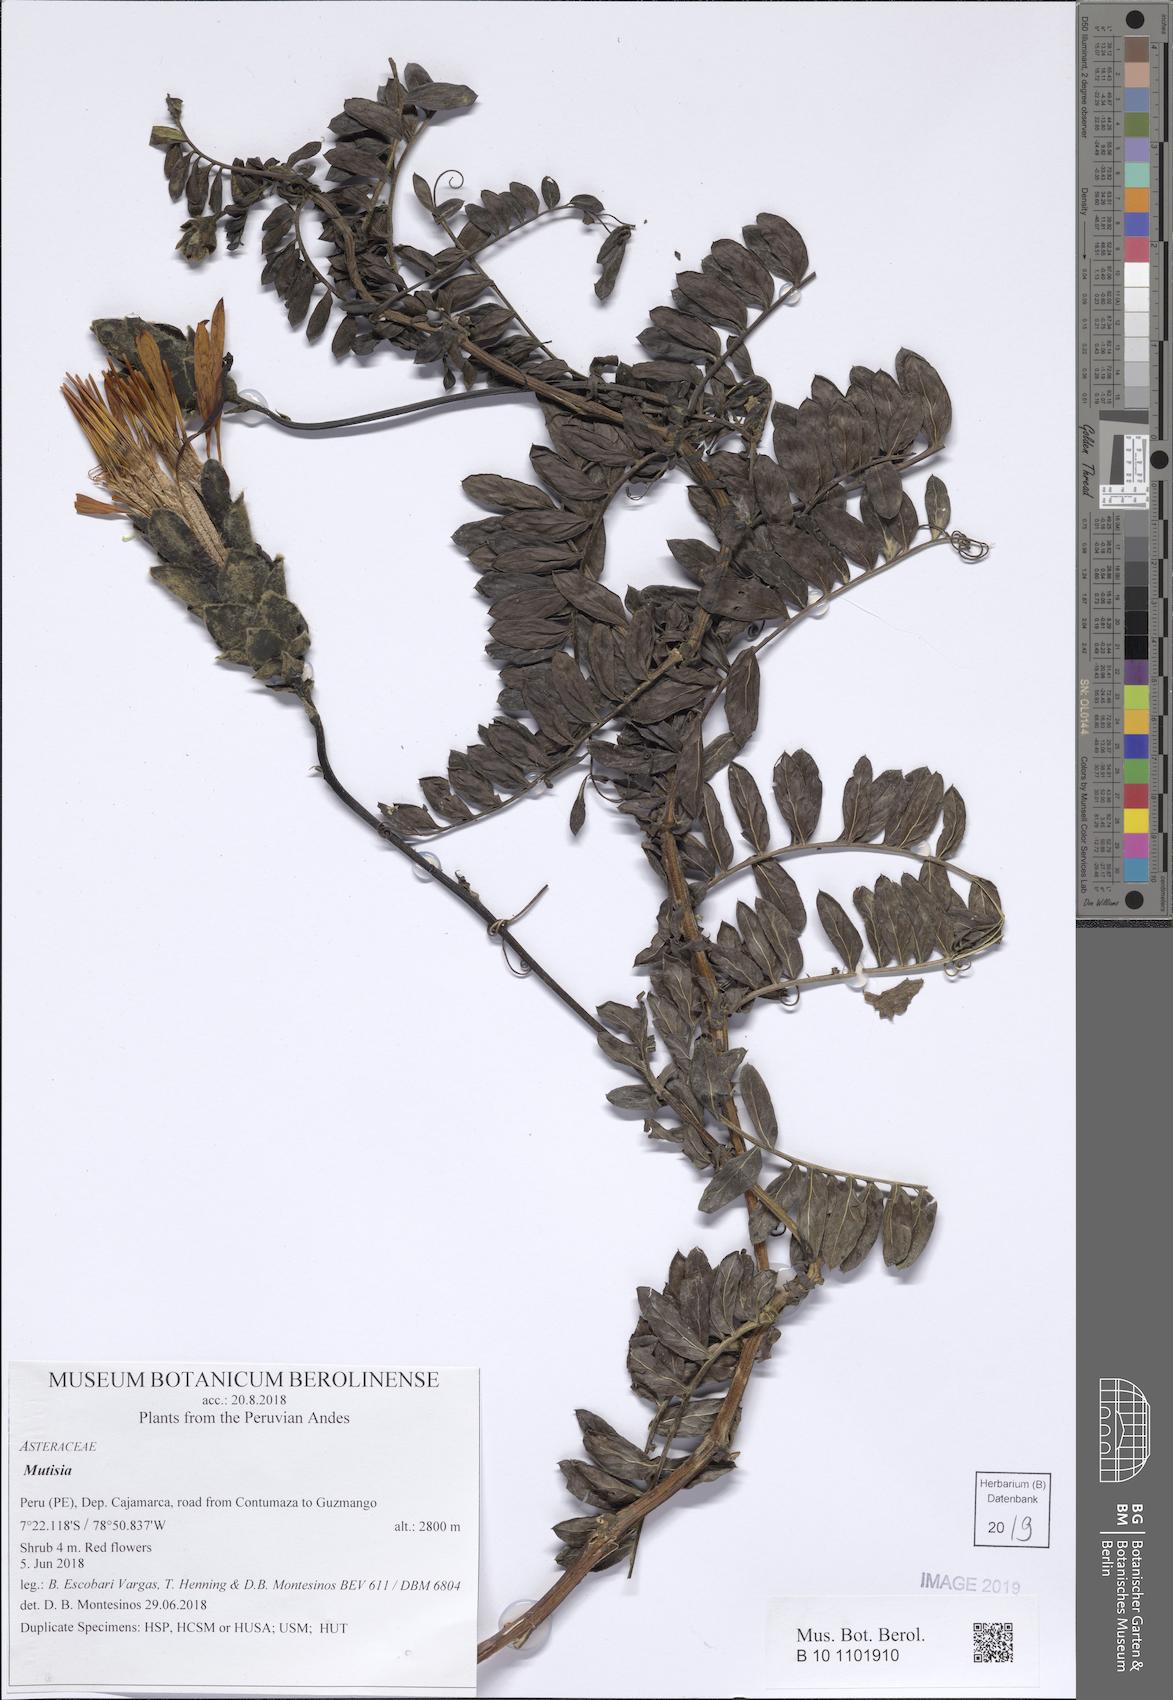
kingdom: Plantae
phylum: Tracheophyta
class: Magnoliopsida
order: Asterales
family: Asteraceae
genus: Mutisia
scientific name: Mutisia venusta
